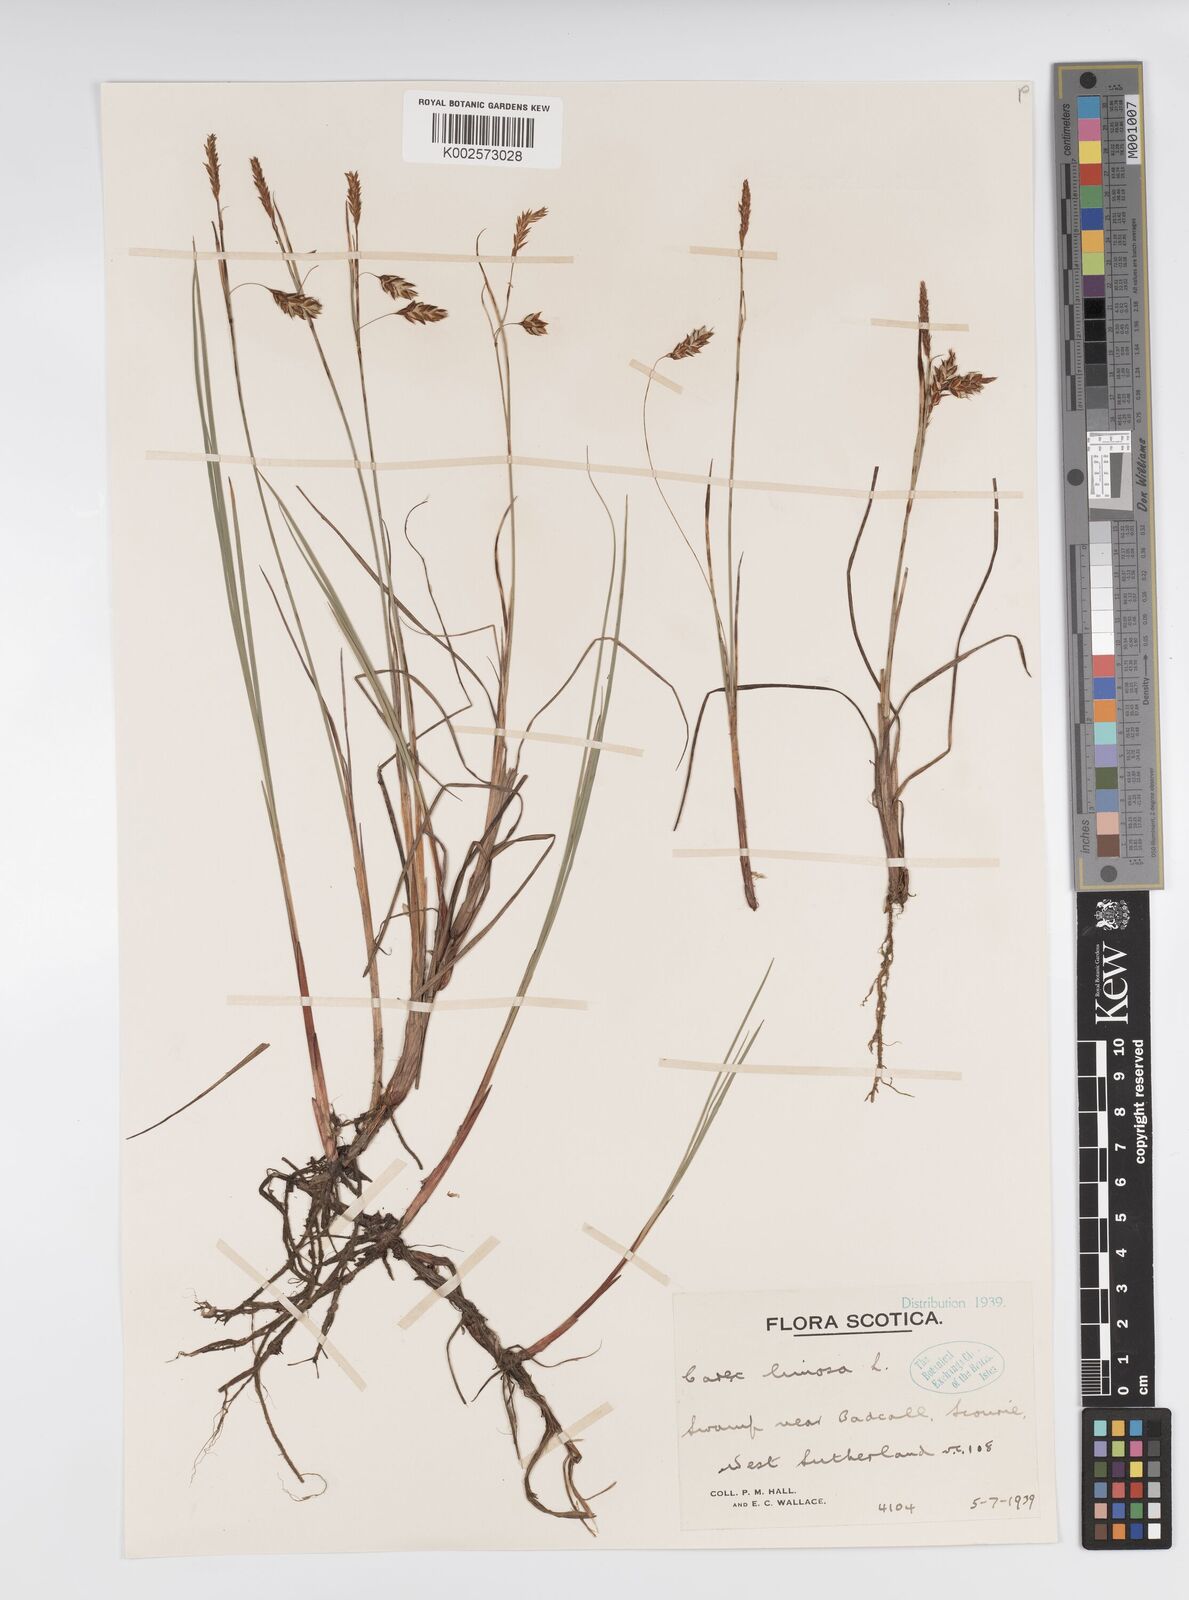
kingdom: Plantae
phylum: Tracheophyta
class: Liliopsida
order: Poales
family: Cyperaceae
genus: Carex
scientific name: Carex limosa
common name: Bog sedge
